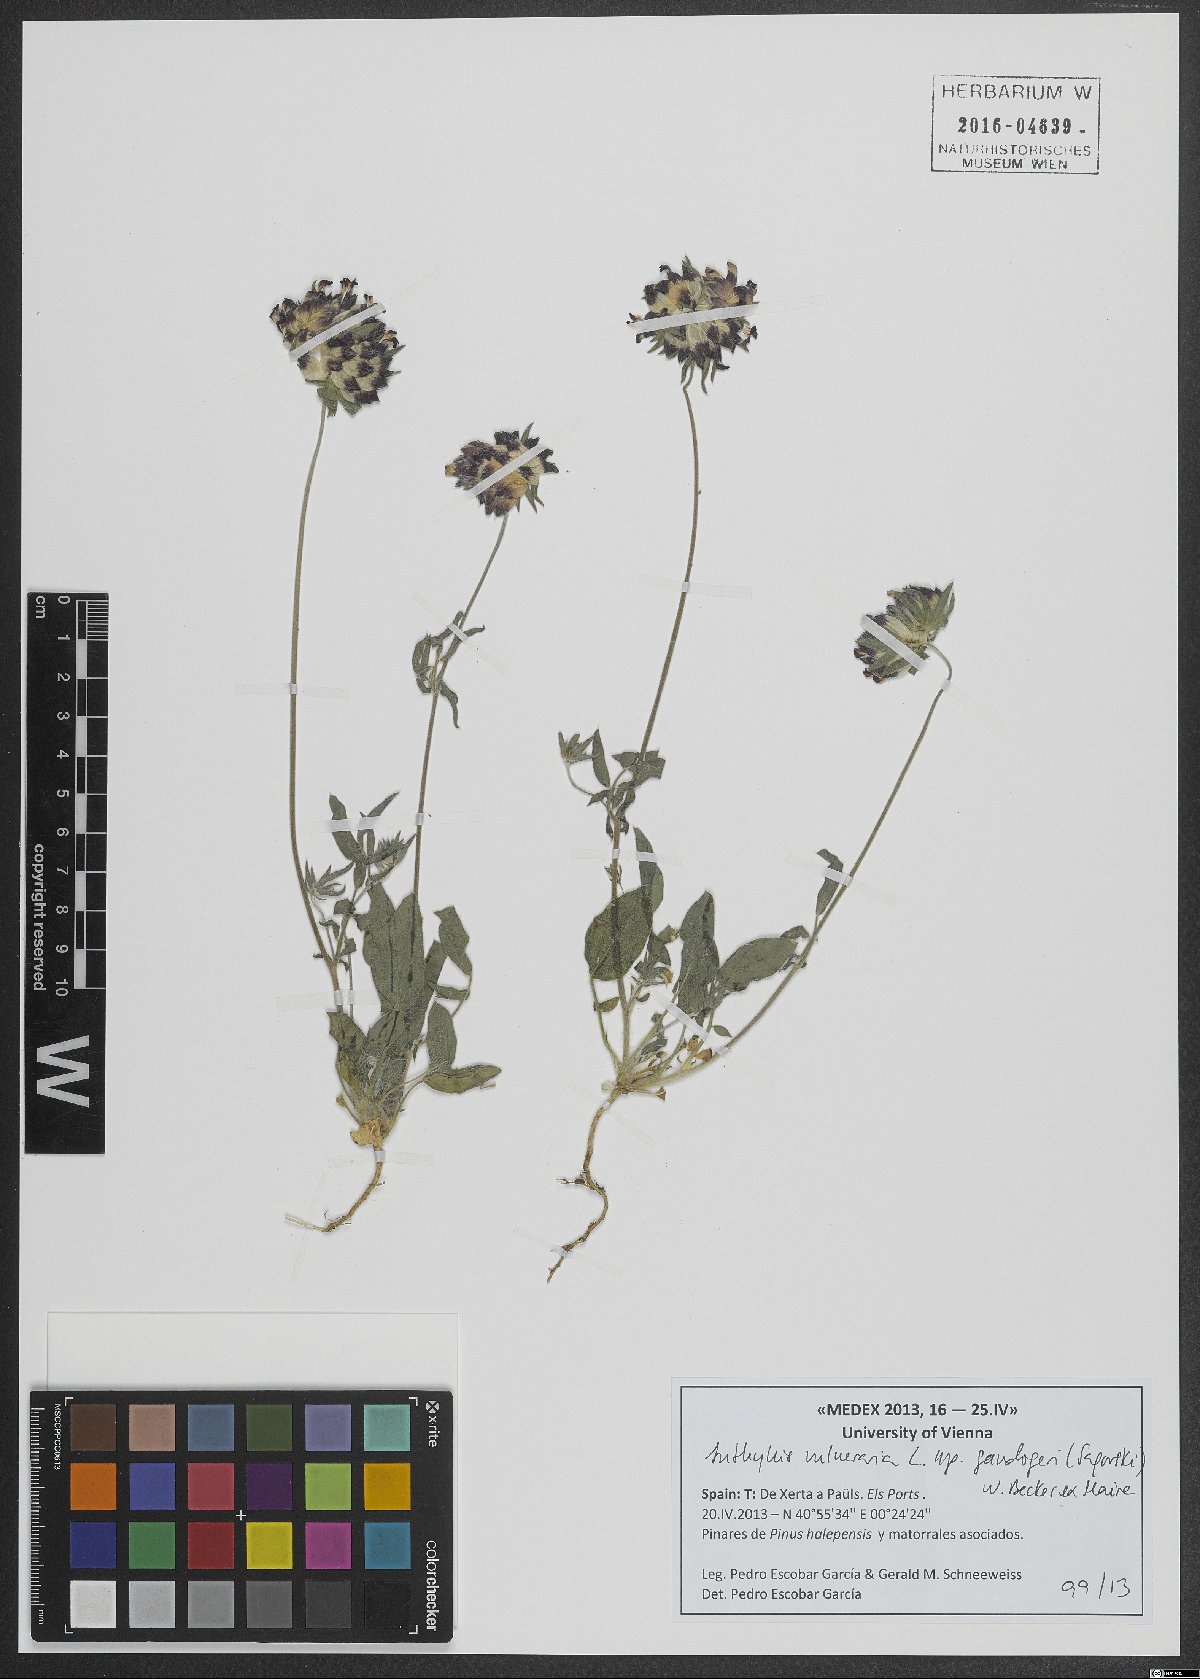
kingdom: Plantae
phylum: Tracheophyta
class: Magnoliopsida
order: Fabales
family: Fabaceae
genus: Anthyllis
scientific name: Anthyllis vulneraria
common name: Kidney vetch
